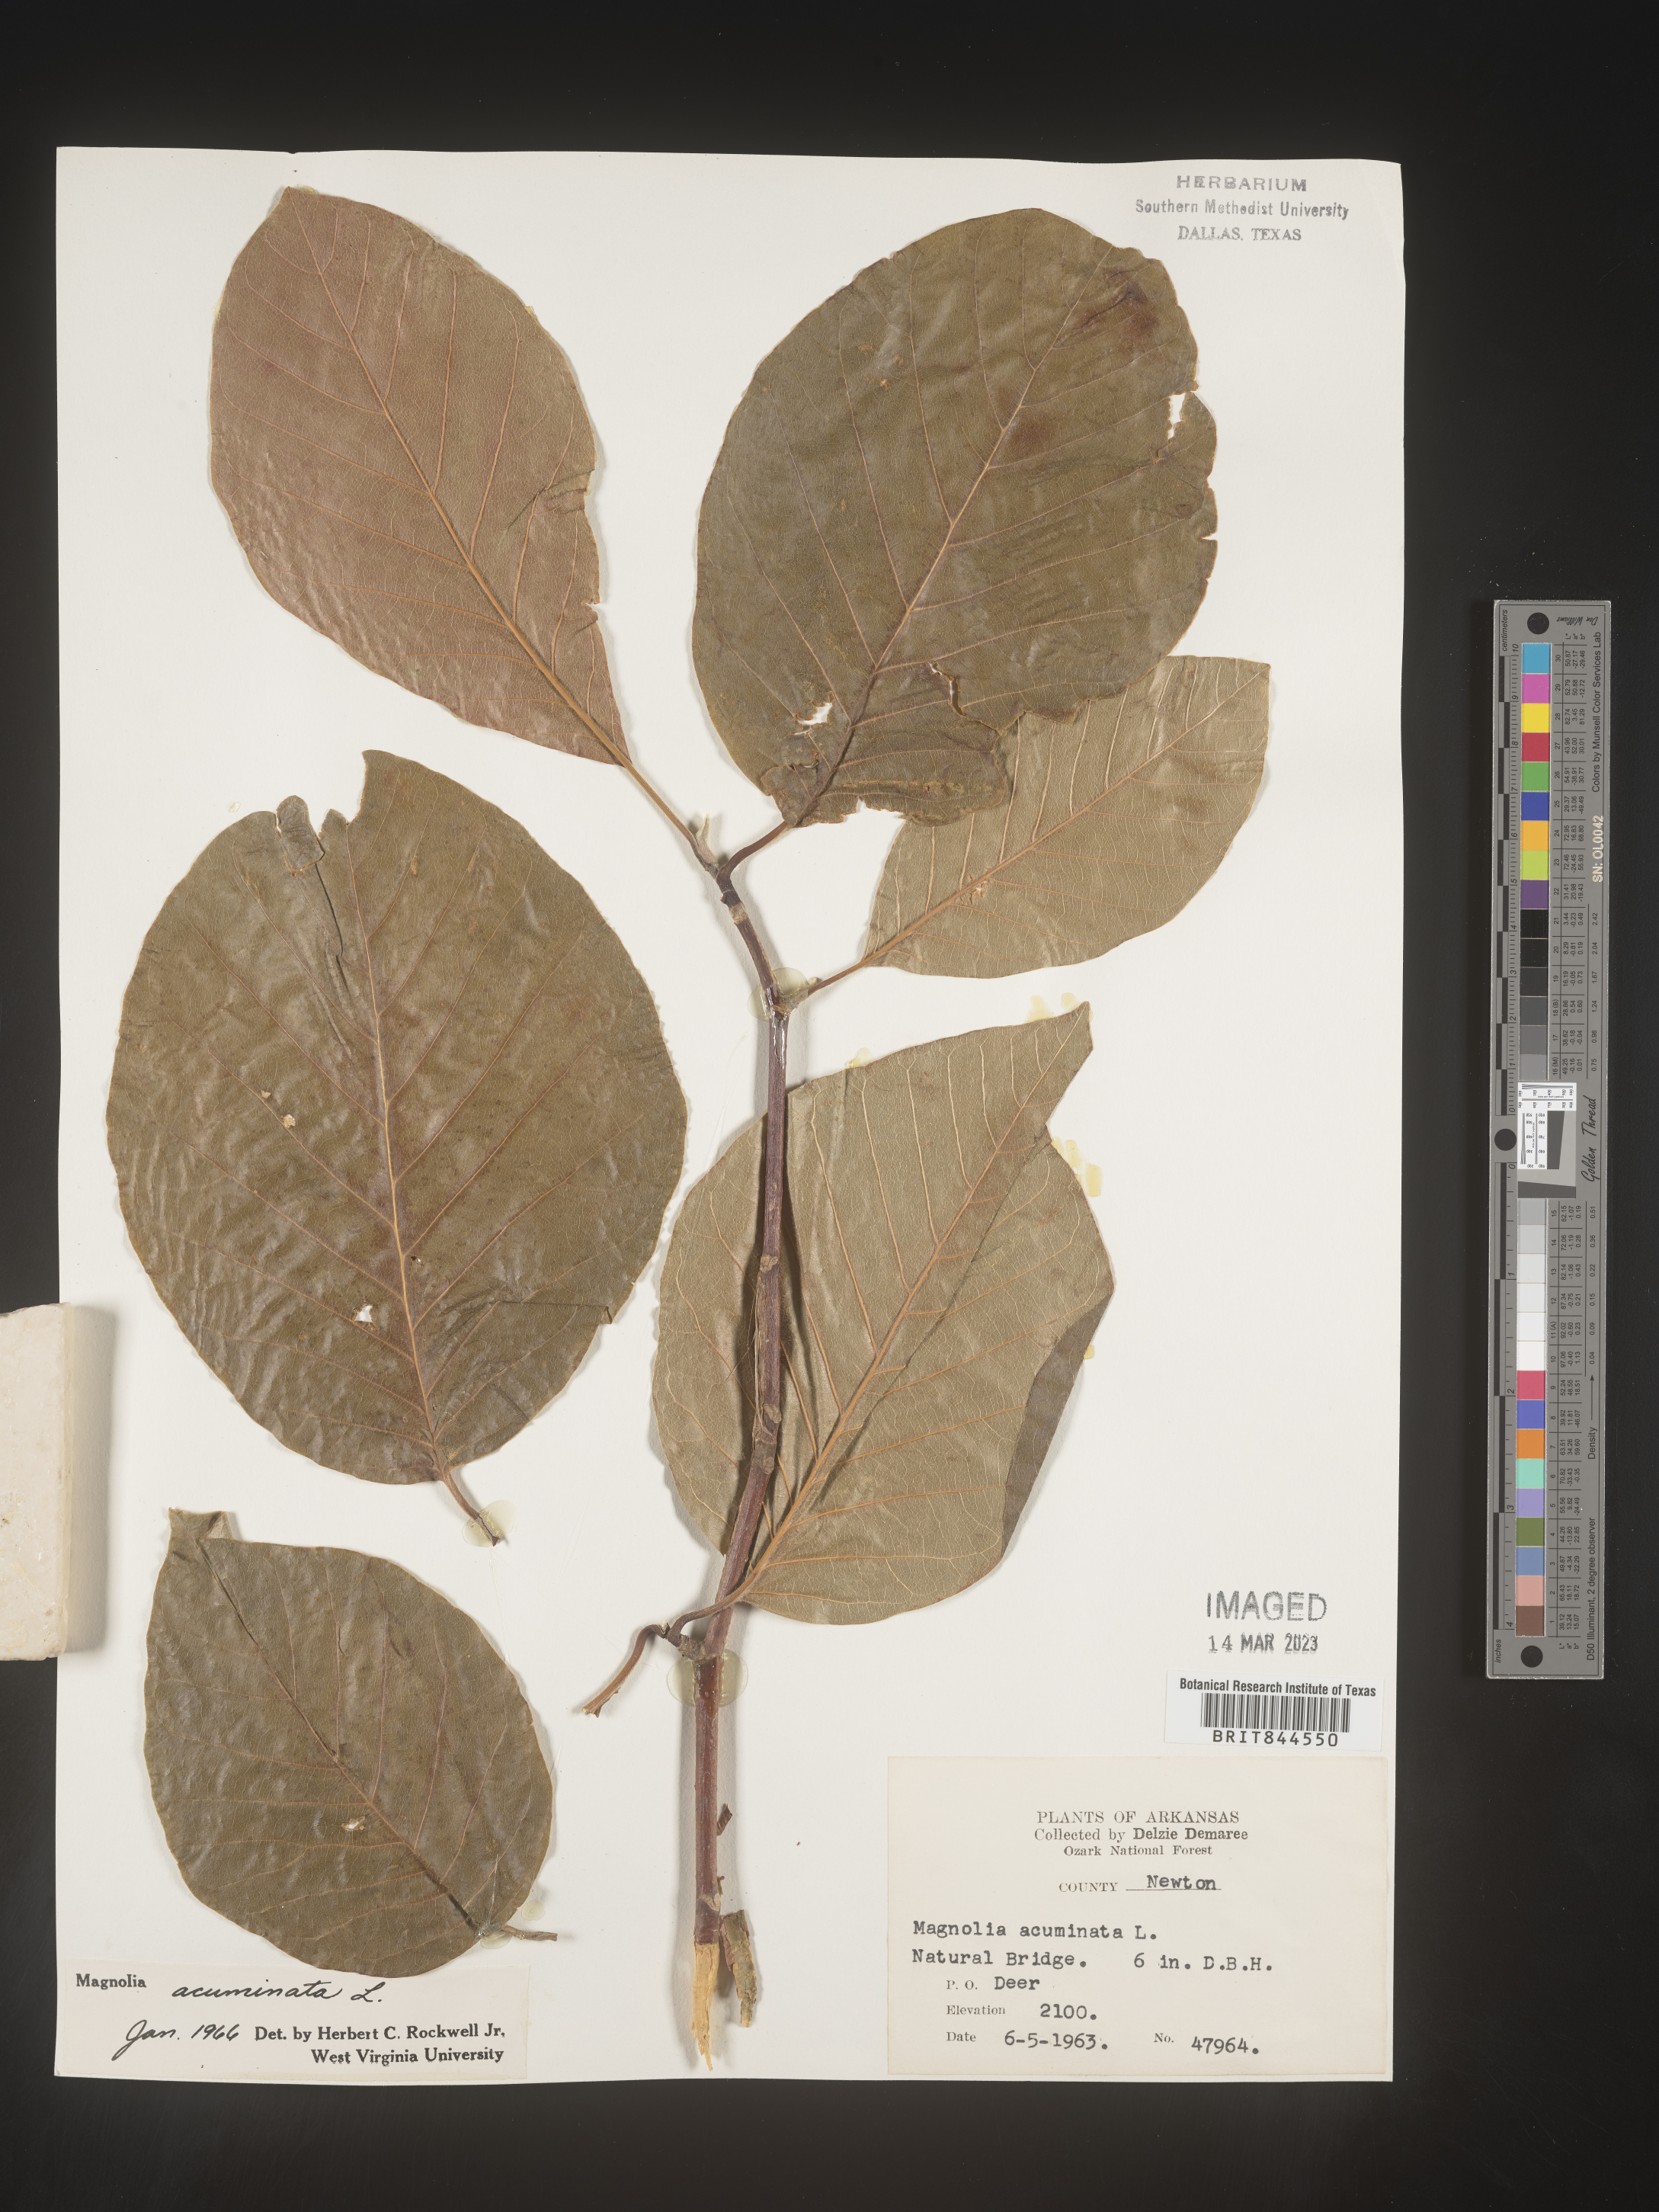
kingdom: Plantae
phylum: Tracheophyta
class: Magnoliopsida
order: Magnoliales
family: Magnoliaceae
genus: Magnolia
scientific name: Magnolia acuminata
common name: Cucumber magnolia
